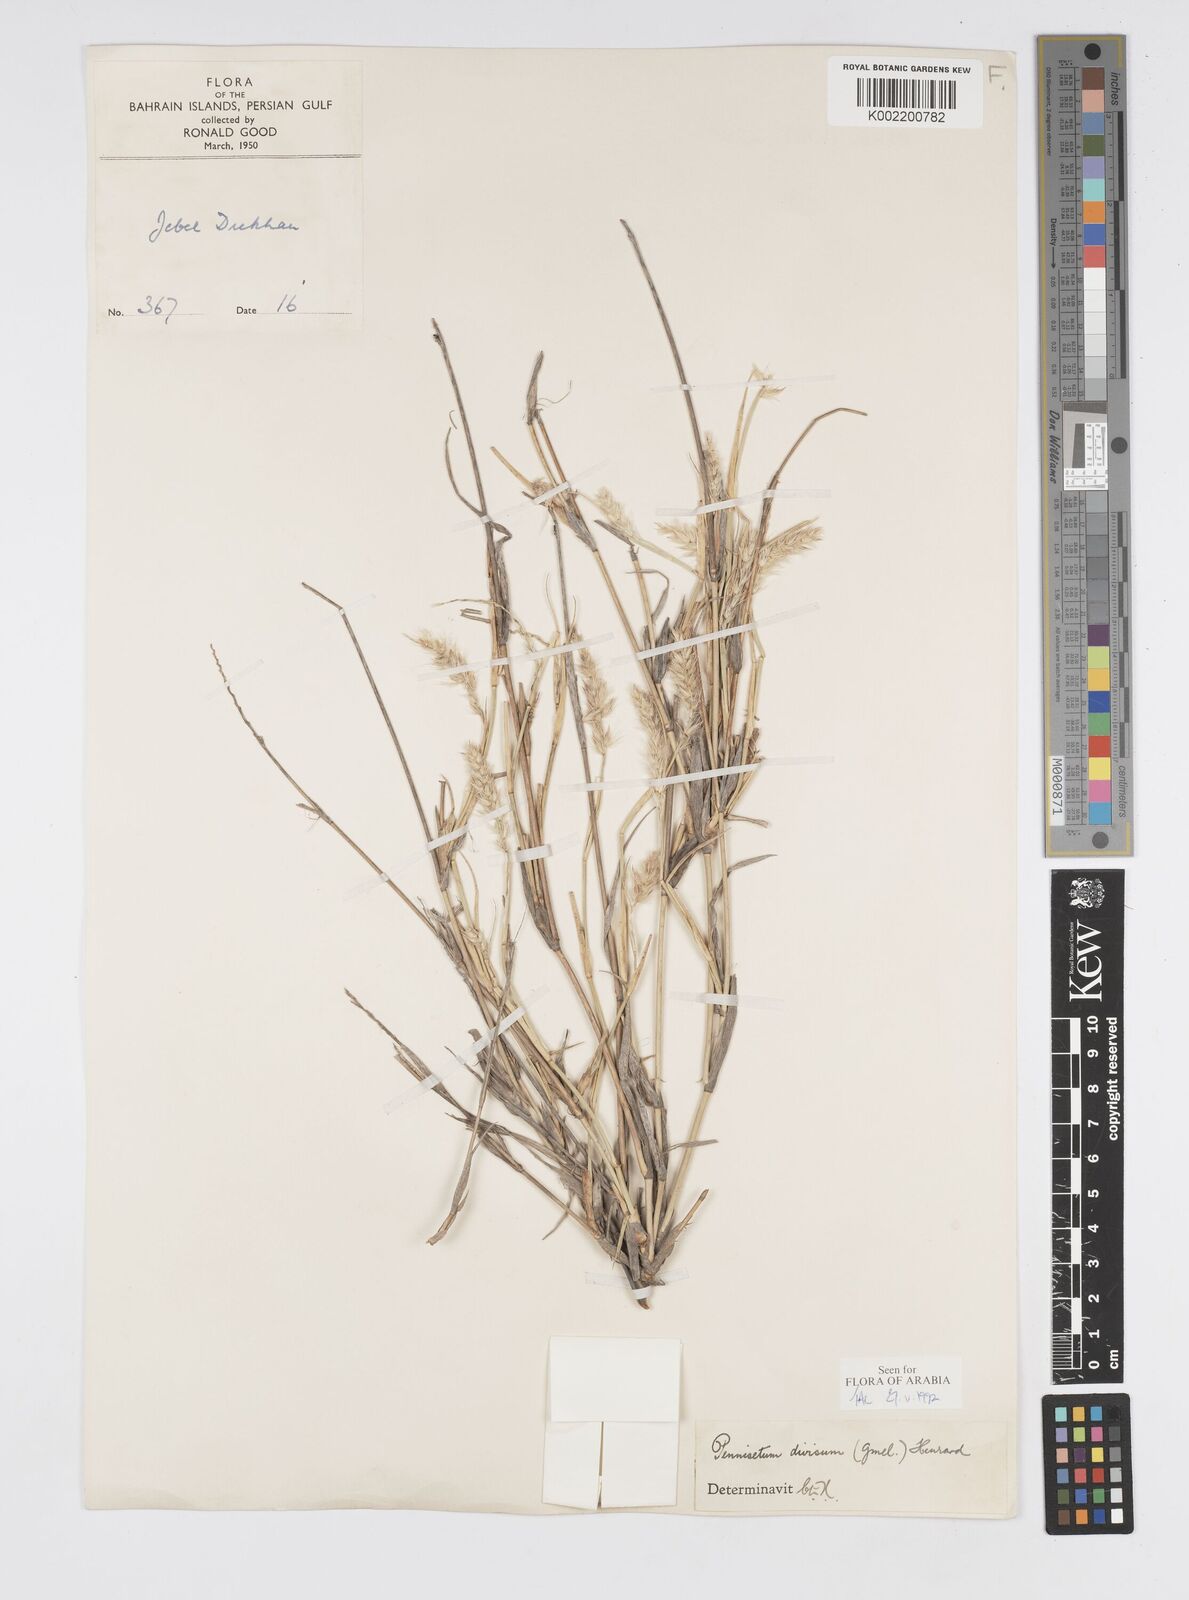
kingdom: Plantae
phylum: Tracheophyta
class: Liliopsida
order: Poales
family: Poaceae
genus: Cenchrus
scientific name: Cenchrus divisus
